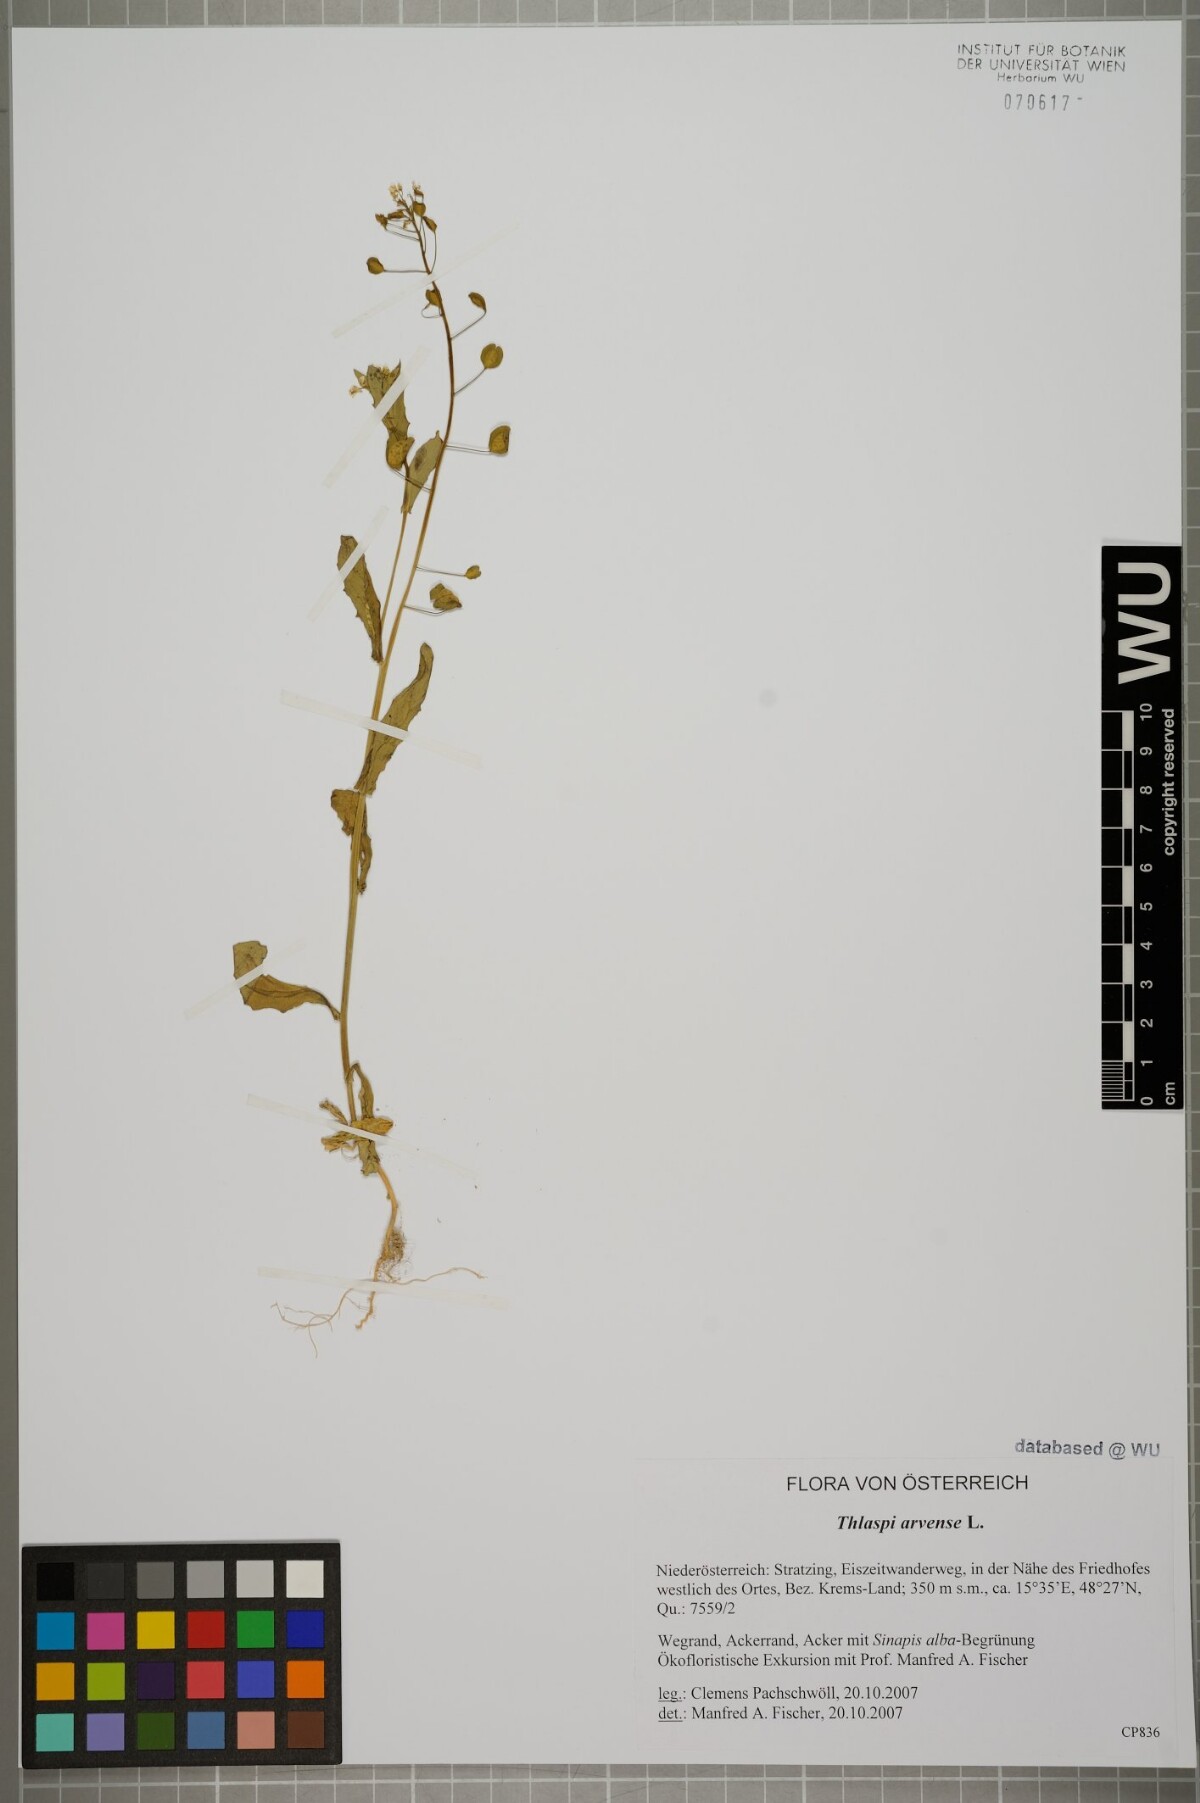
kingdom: Plantae
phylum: Tracheophyta
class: Magnoliopsida
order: Brassicales
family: Brassicaceae
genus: Thlaspi
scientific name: Thlaspi arvense
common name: Field pennycress
